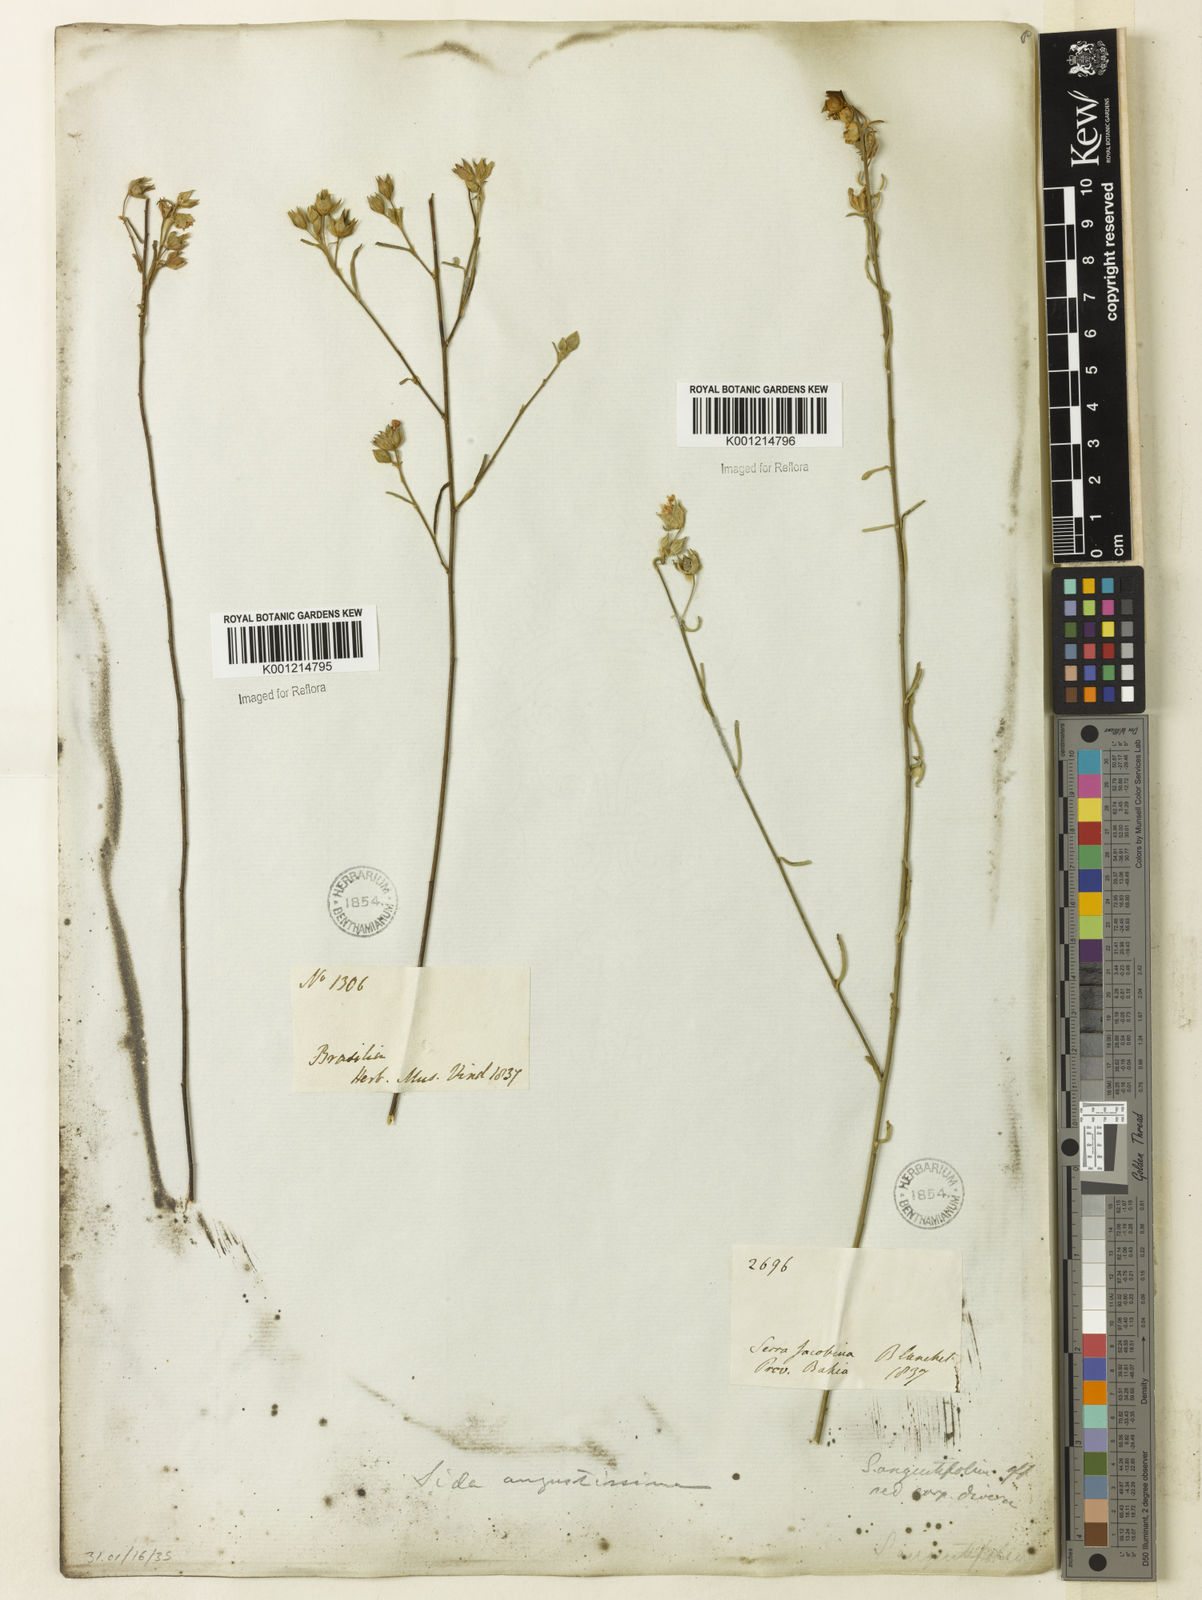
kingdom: Plantae
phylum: Tracheophyta
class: Magnoliopsida
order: Malvales
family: Malvaceae
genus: Sida
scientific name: Sida angustissima
